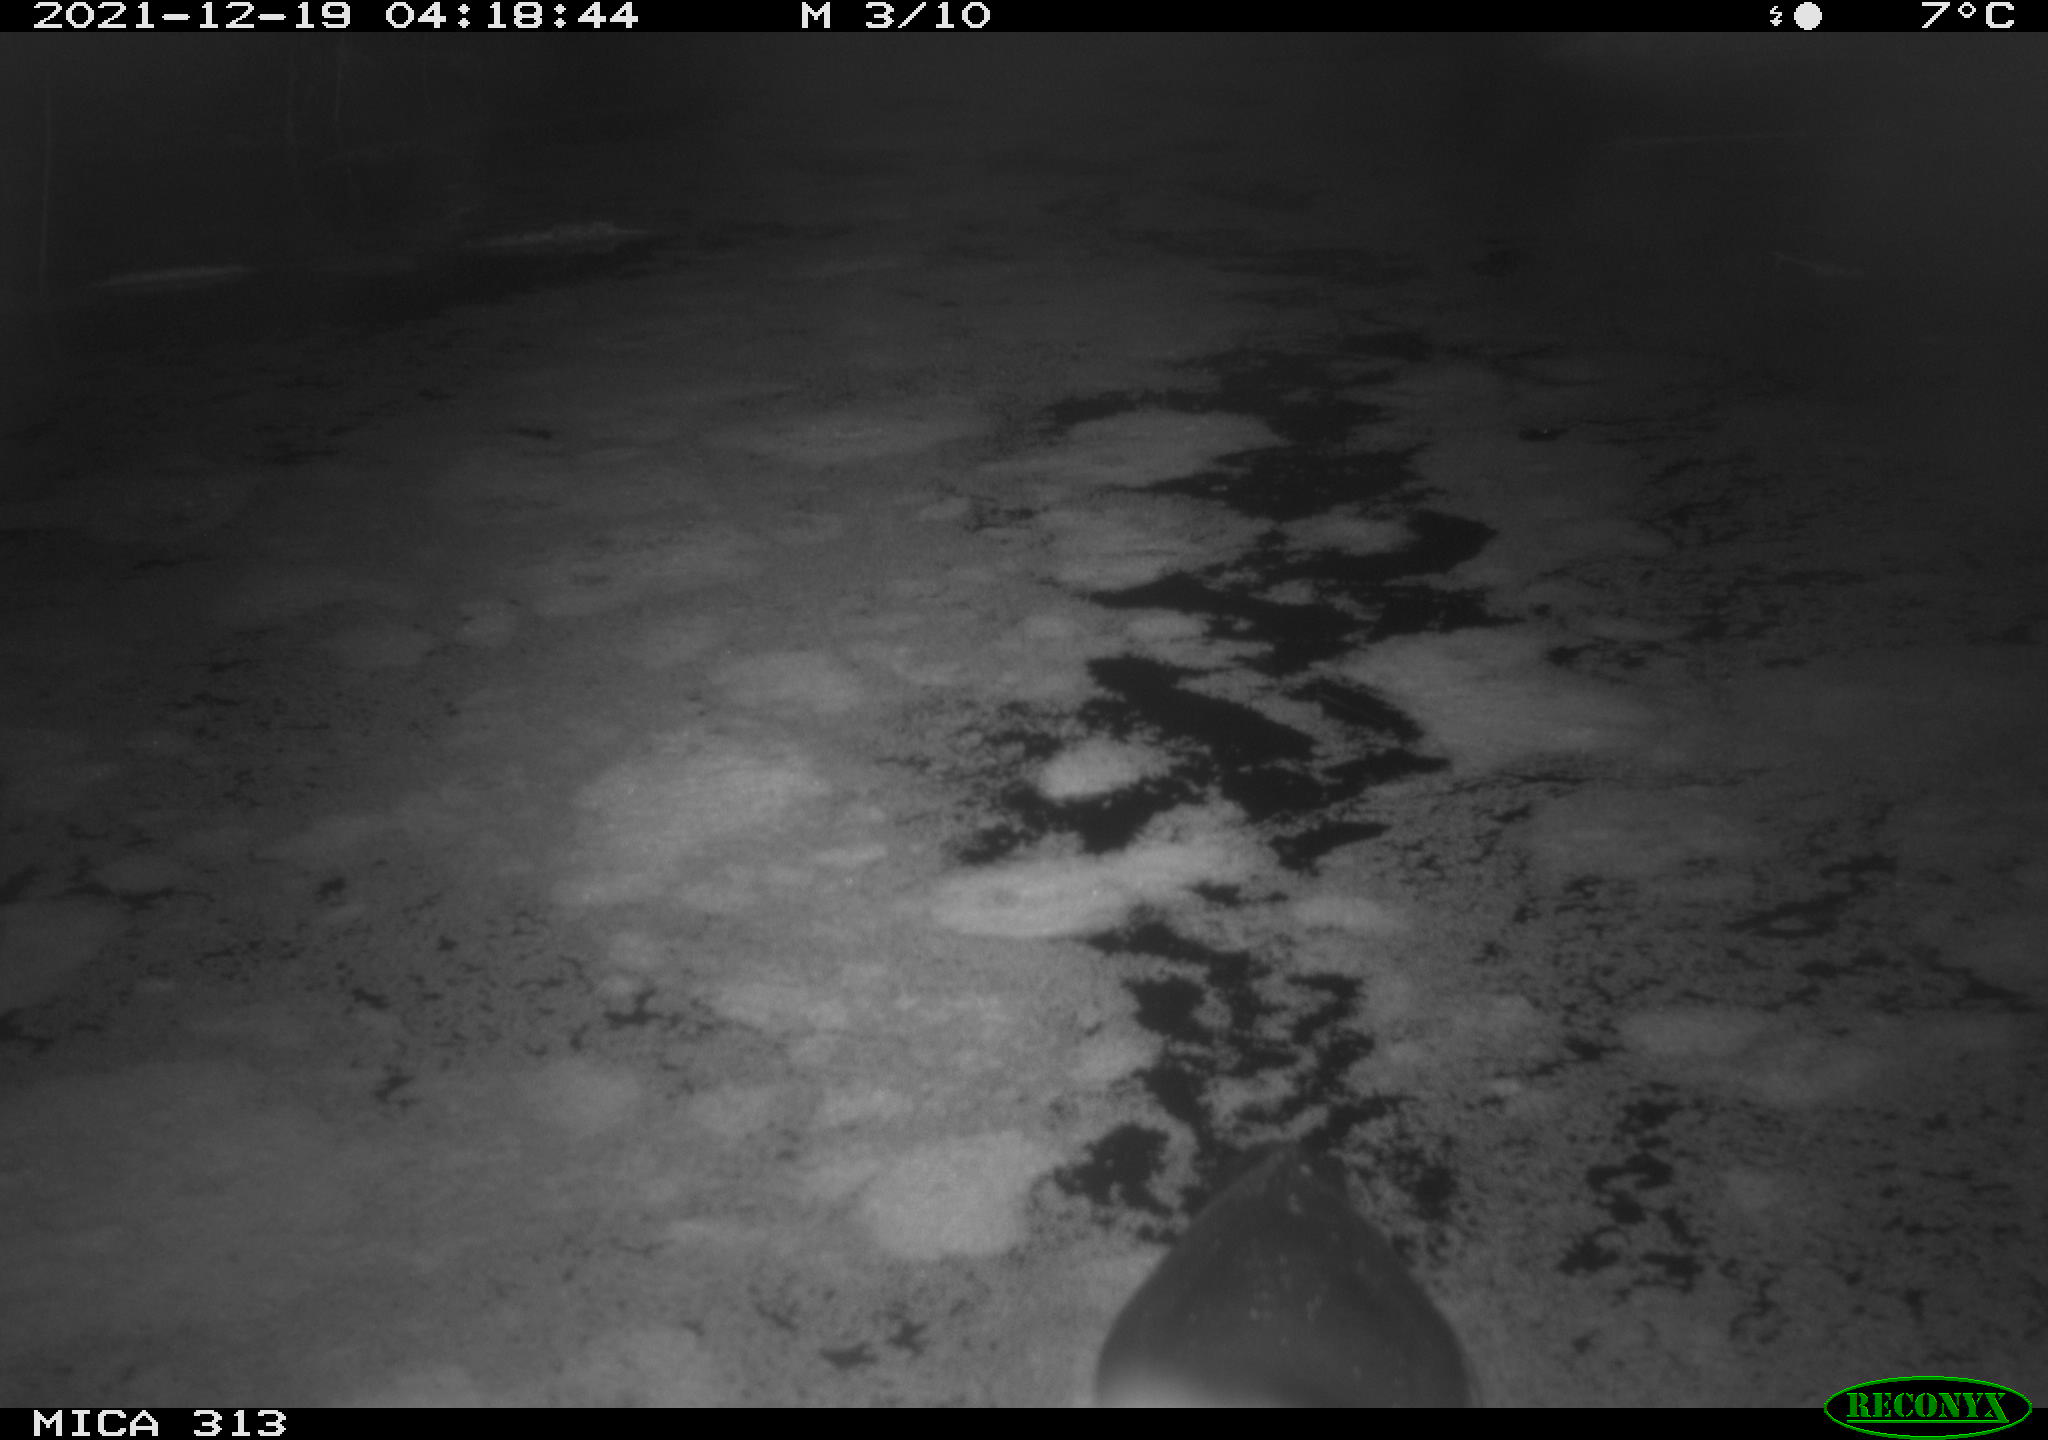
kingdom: Animalia
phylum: Chordata
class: Aves
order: Gruiformes
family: Rallidae
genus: Gallinula
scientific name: Gallinula chloropus
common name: Common moorhen
